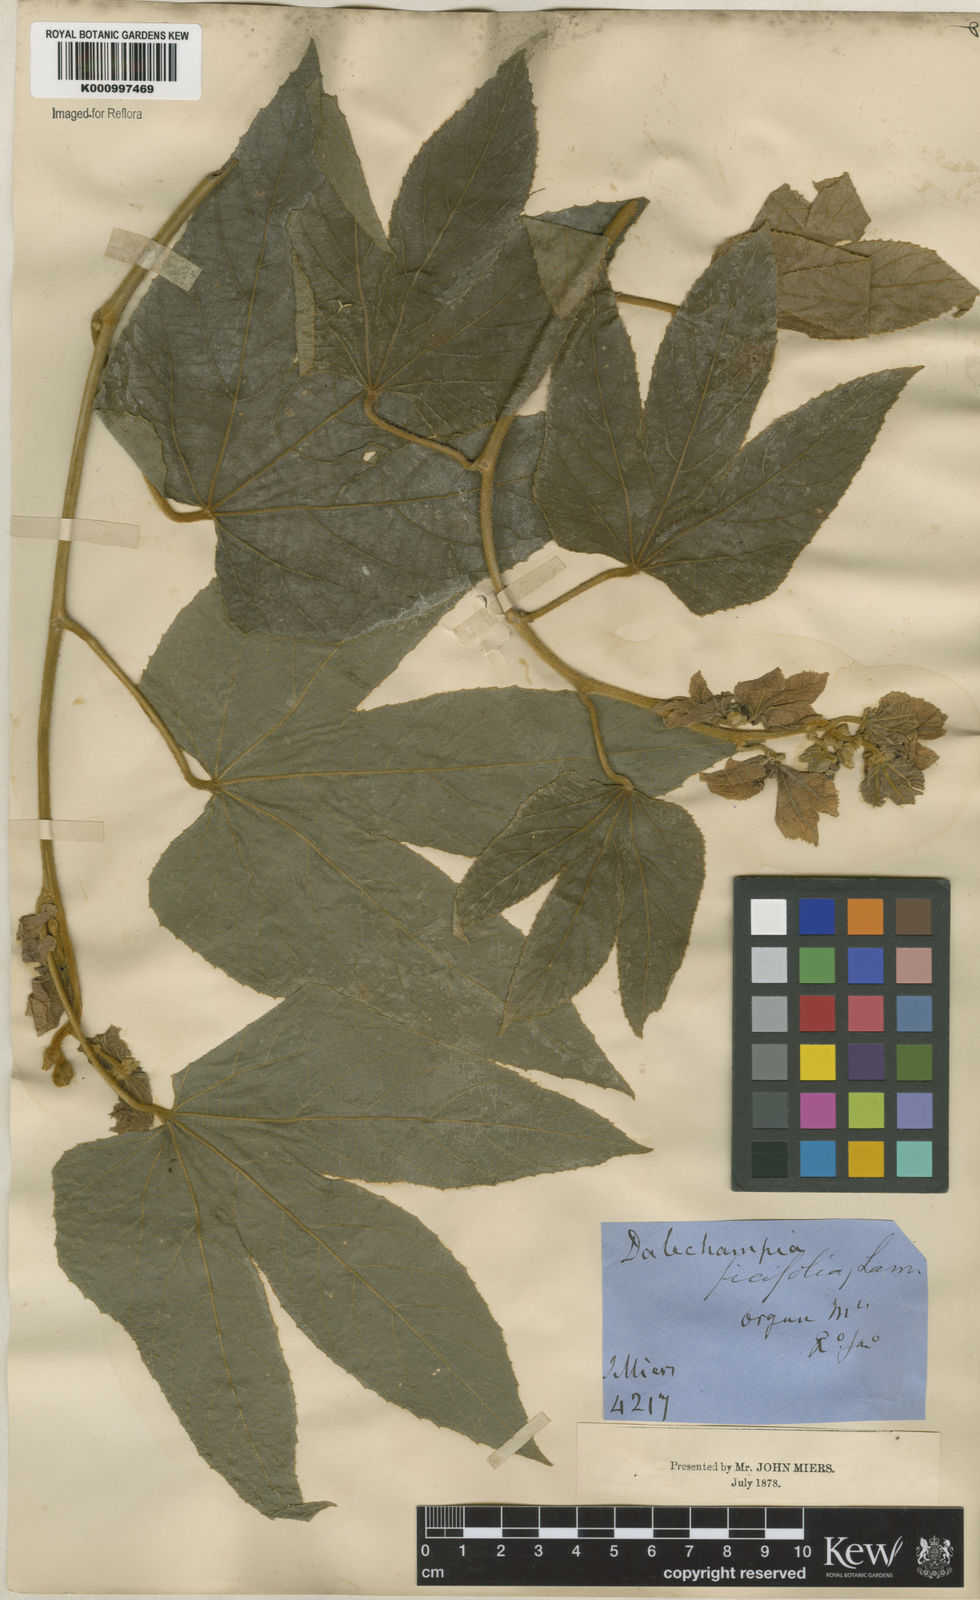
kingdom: Plantae
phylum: Tracheophyta
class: Magnoliopsida
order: Malpighiales
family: Euphorbiaceae
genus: Dalechampia
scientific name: Dalechampia ficifolia
